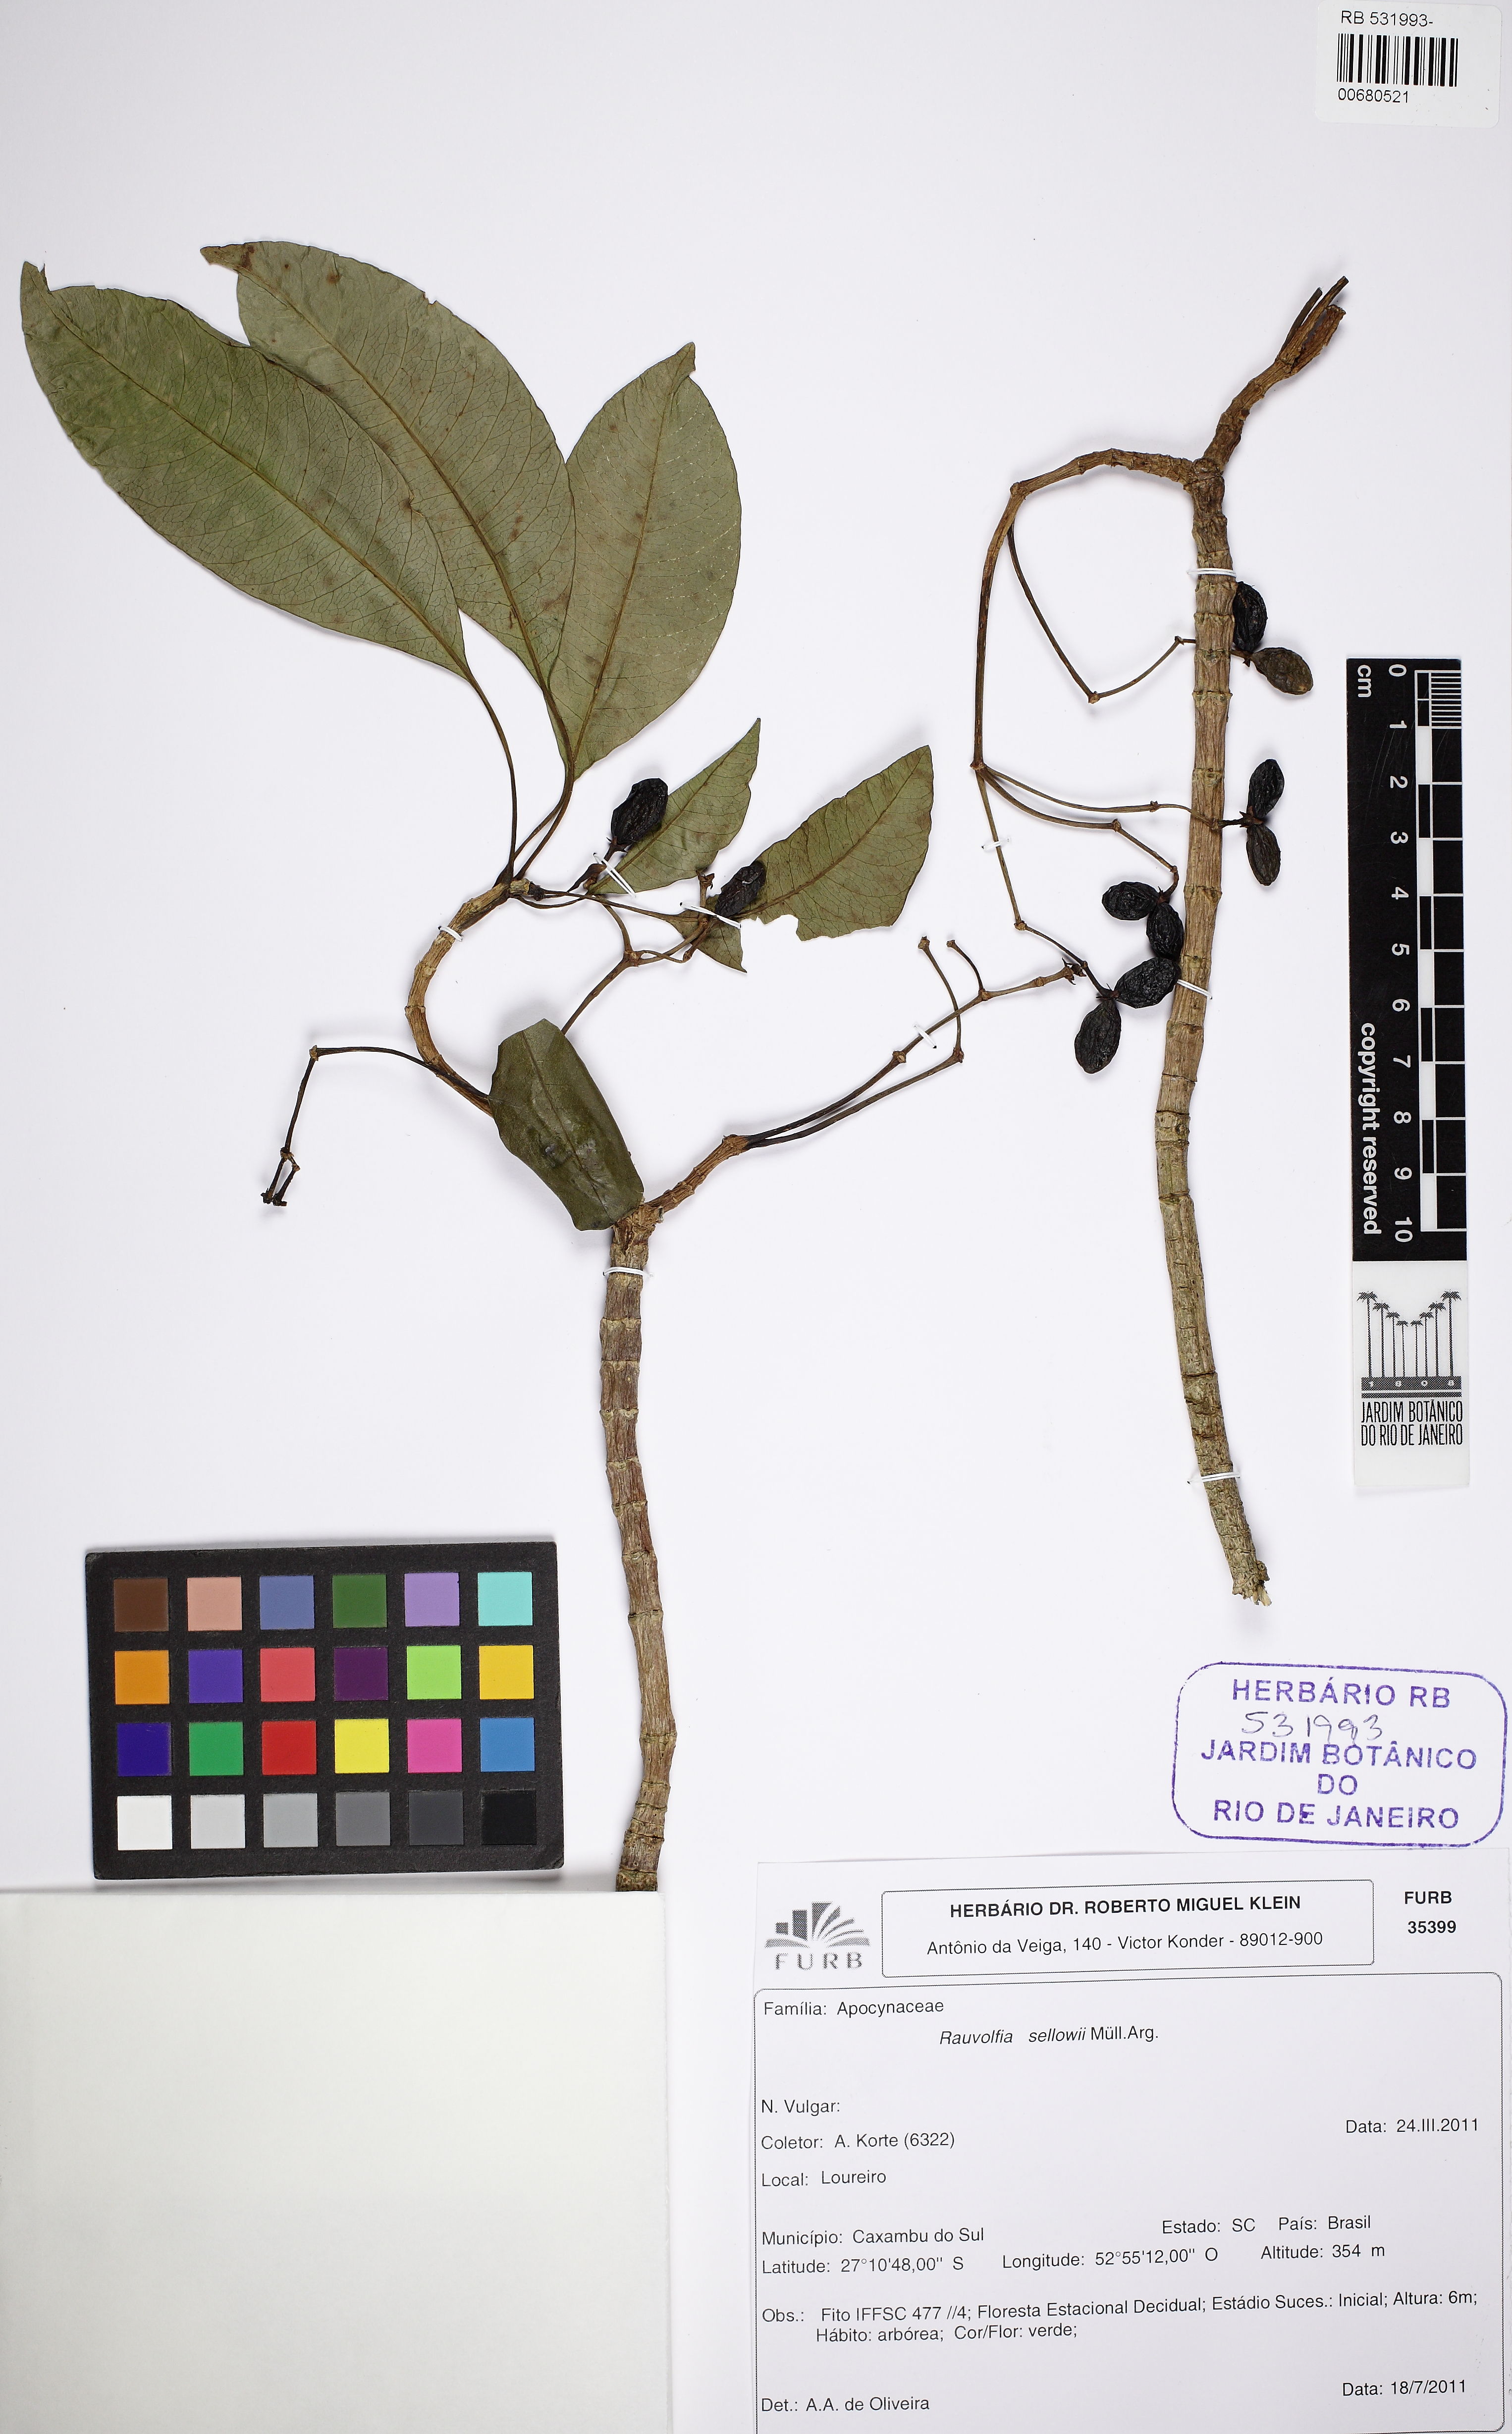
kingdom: Plantae
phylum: Tracheophyta
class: Magnoliopsida
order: Gentianales
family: Apocynaceae
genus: Rauvolfia
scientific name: Rauvolfia sellowii
